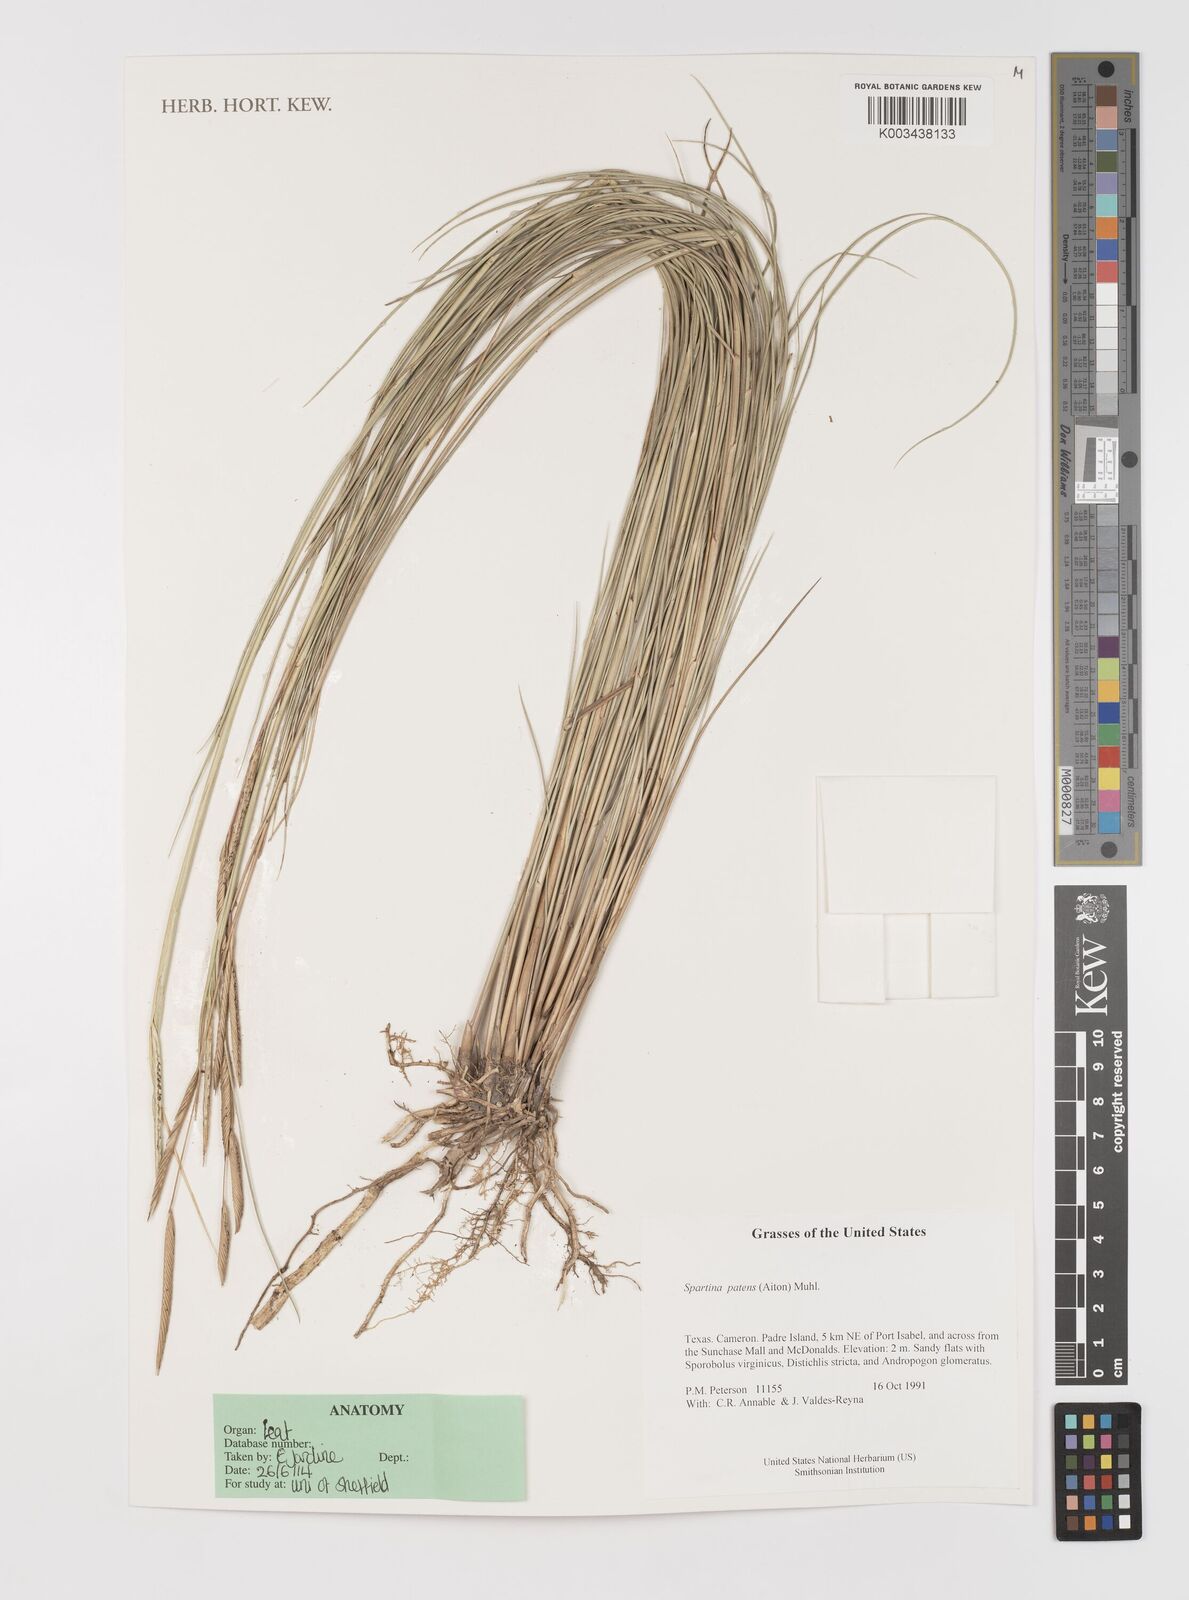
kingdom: Plantae
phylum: Tracheophyta
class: Liliopsida
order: Poales
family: Poaceae
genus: Sporobolus
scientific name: Sporobolus pumilus
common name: Highwater grass
